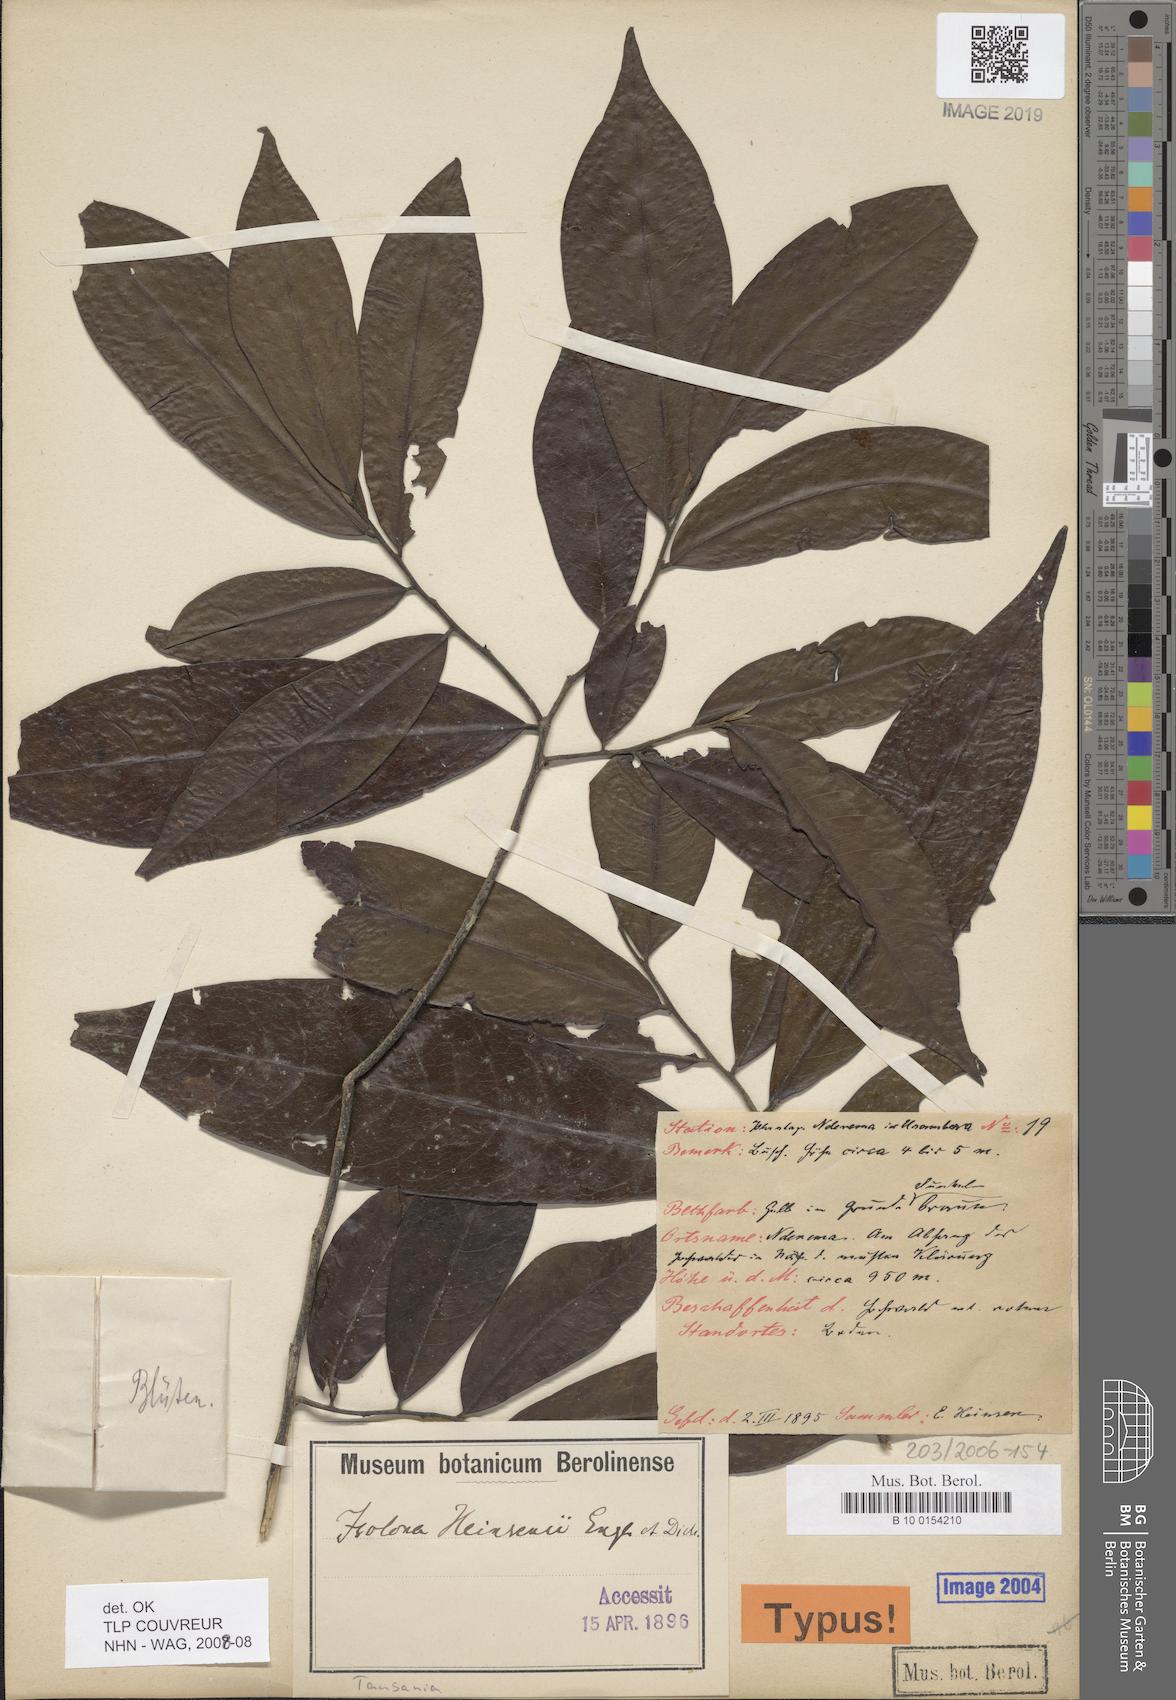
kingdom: Plantae
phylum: Tracheophyta
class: Magnoliopsida
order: Magnoliales
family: Annonaceae
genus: Isolona
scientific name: Isolona heinsenii
